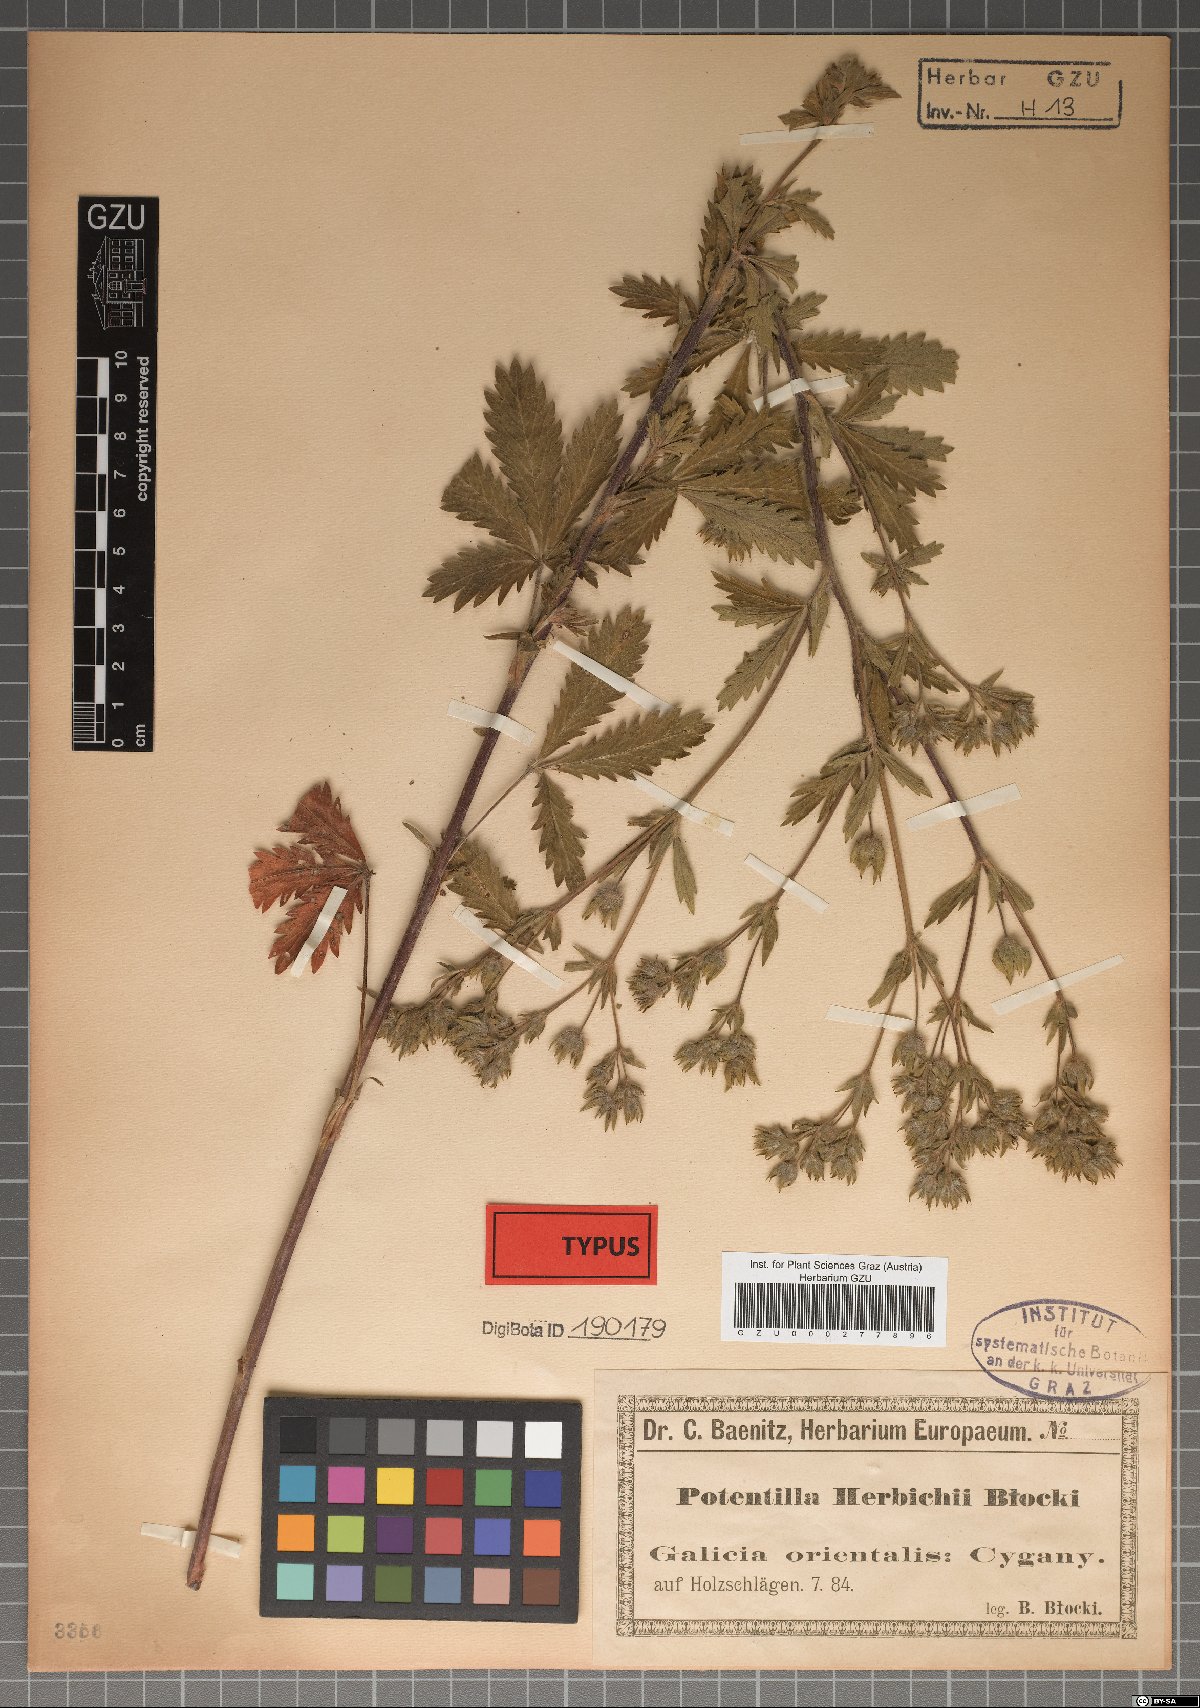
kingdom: Plantae
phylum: Tracheophyta
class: Magnoliopsida
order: Rosales
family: Rosaceae
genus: Potentilla
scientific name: Potentilla herbichii
